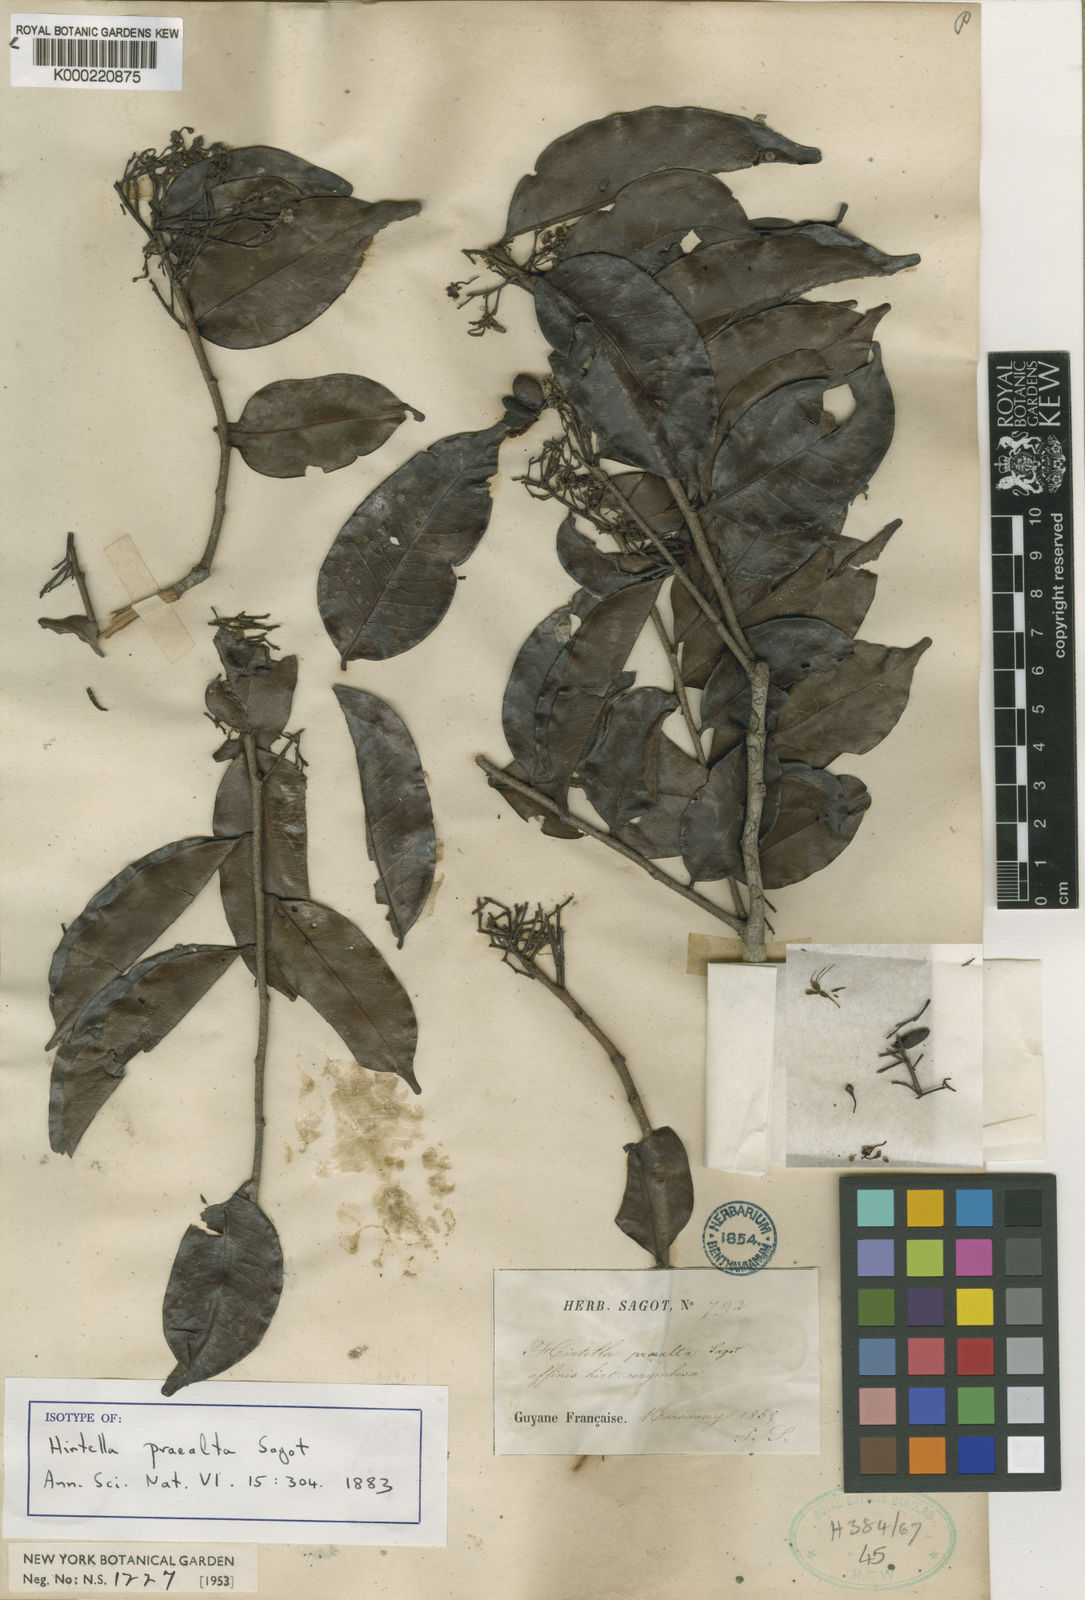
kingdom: Plantae
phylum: Tracheophyta
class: Magnoliopsida
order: Malpighiales
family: Chrysobalanaceae
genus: Hirtella
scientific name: Hirtella bicornis
